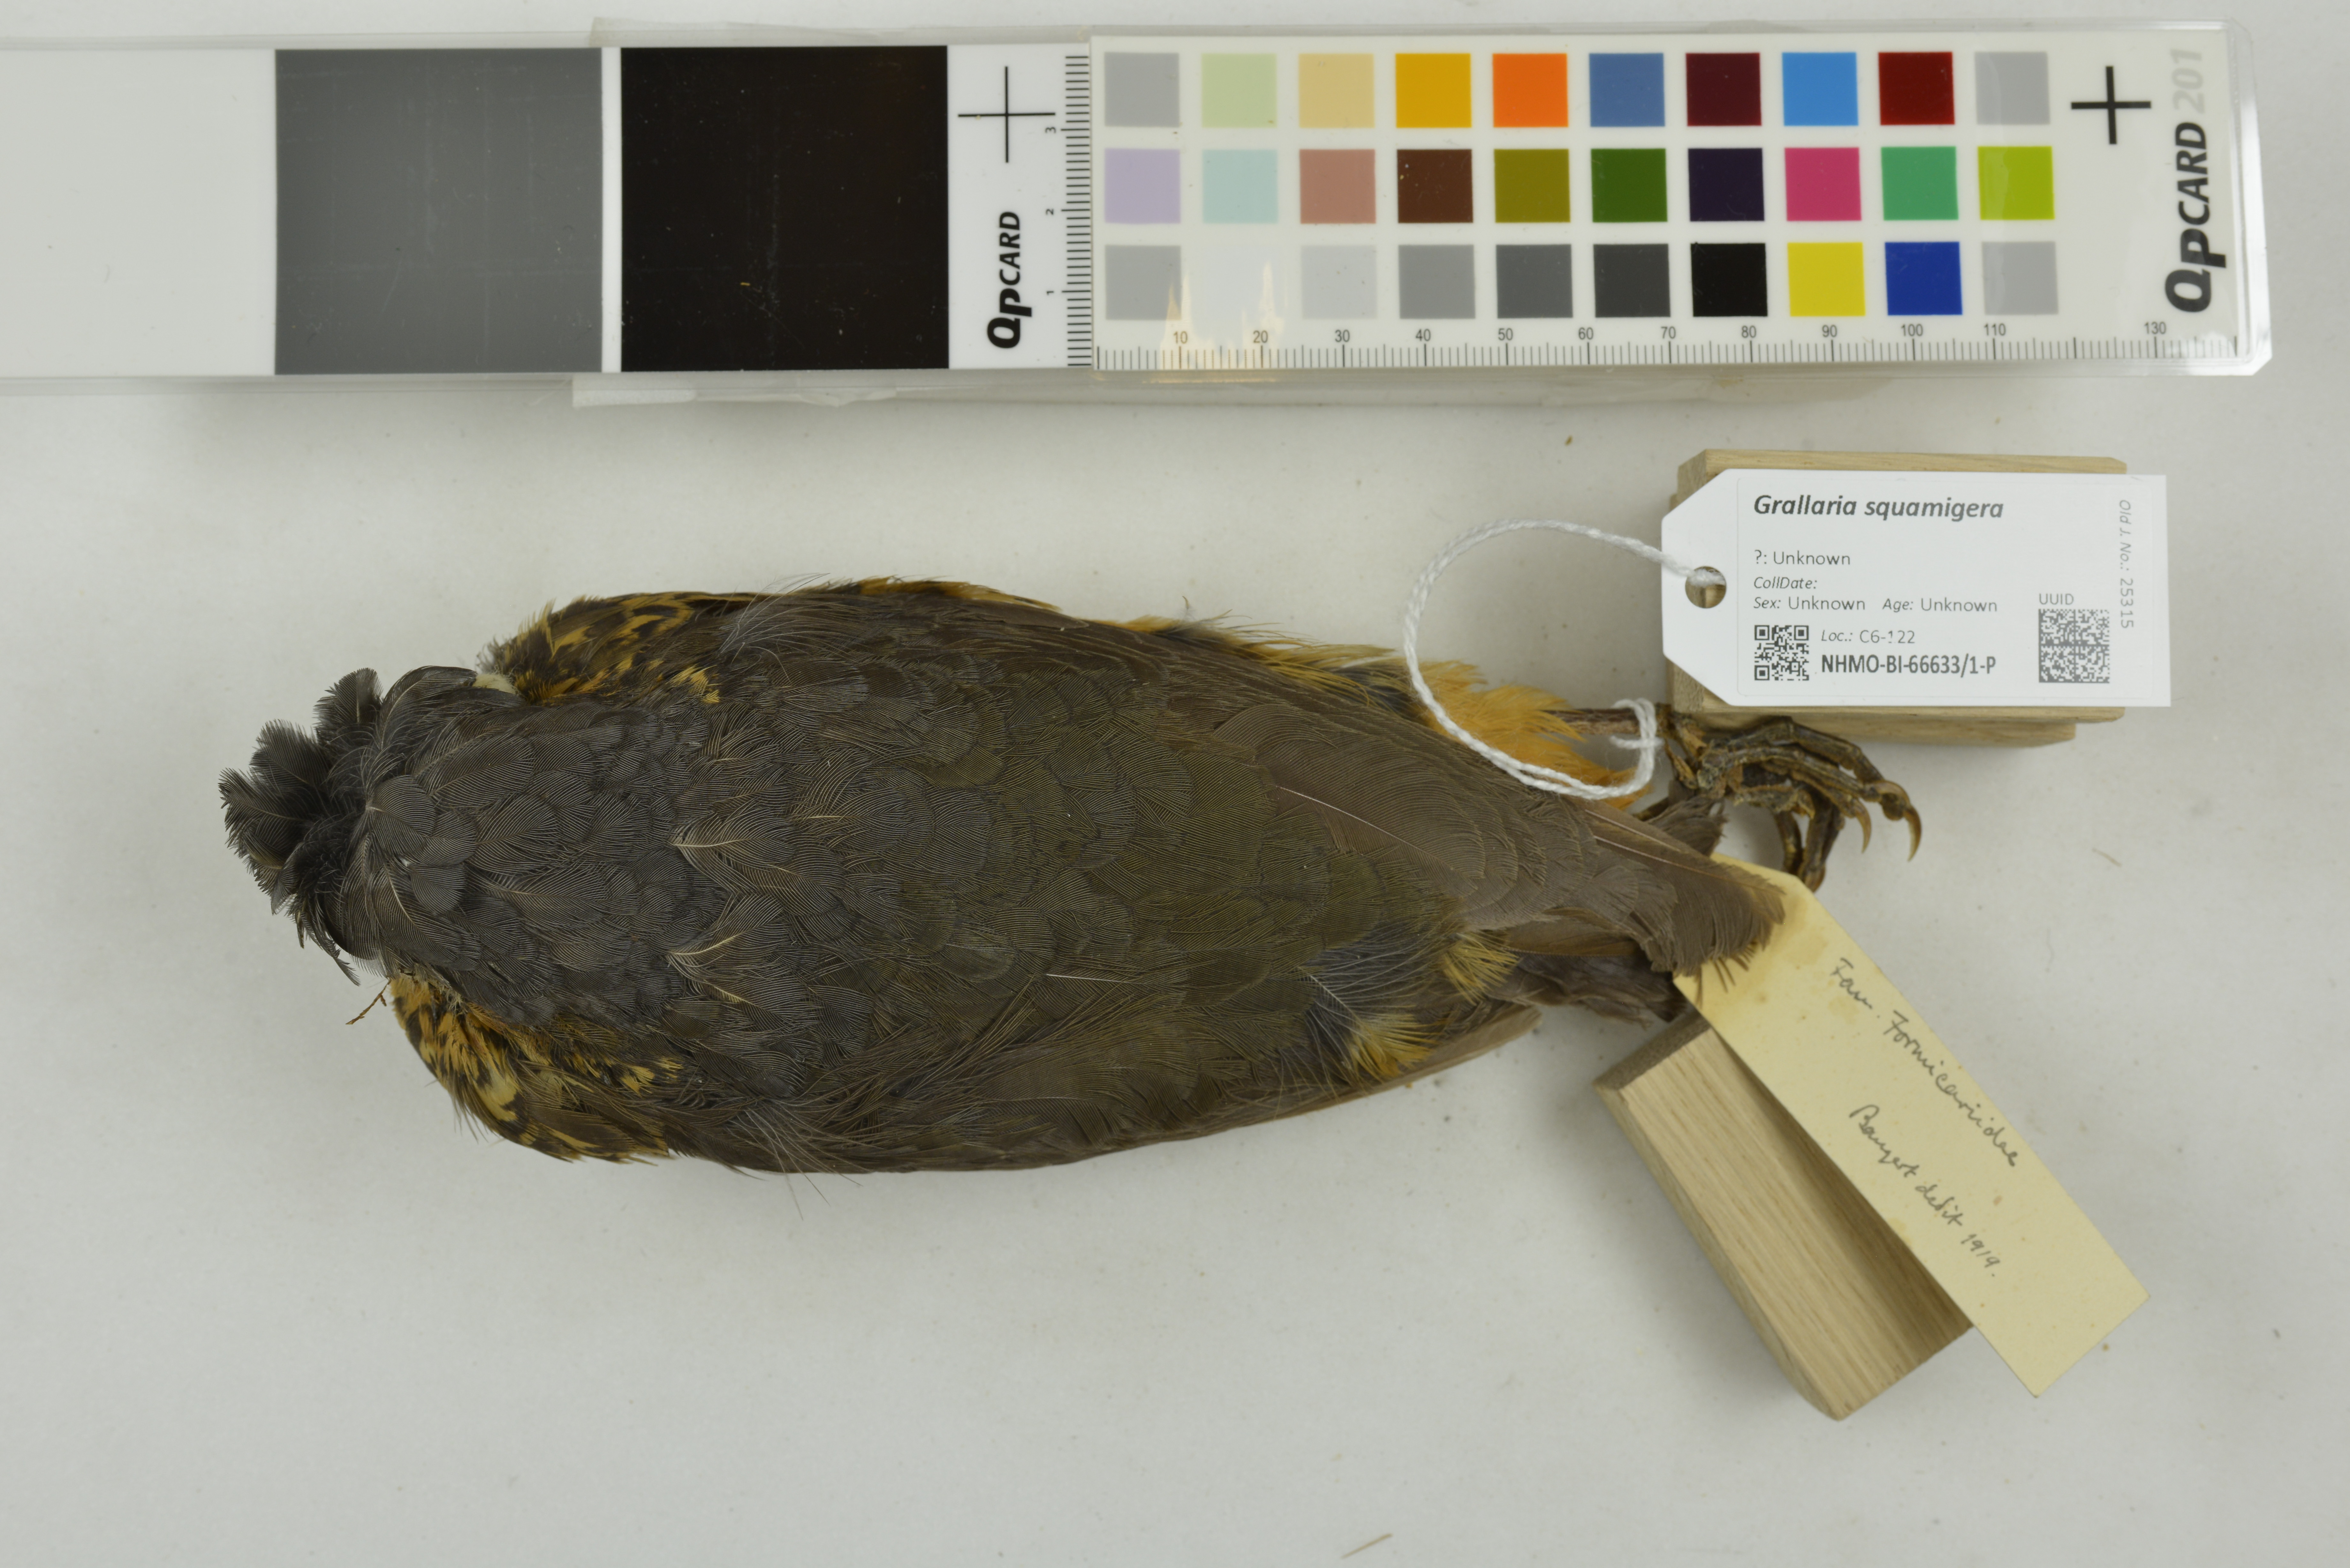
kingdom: Animalia
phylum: Chordata
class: Aves
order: Passeriformes
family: Grallariidae
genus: Grallaria
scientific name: Grallaria squamigera
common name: Undulated antpitta
